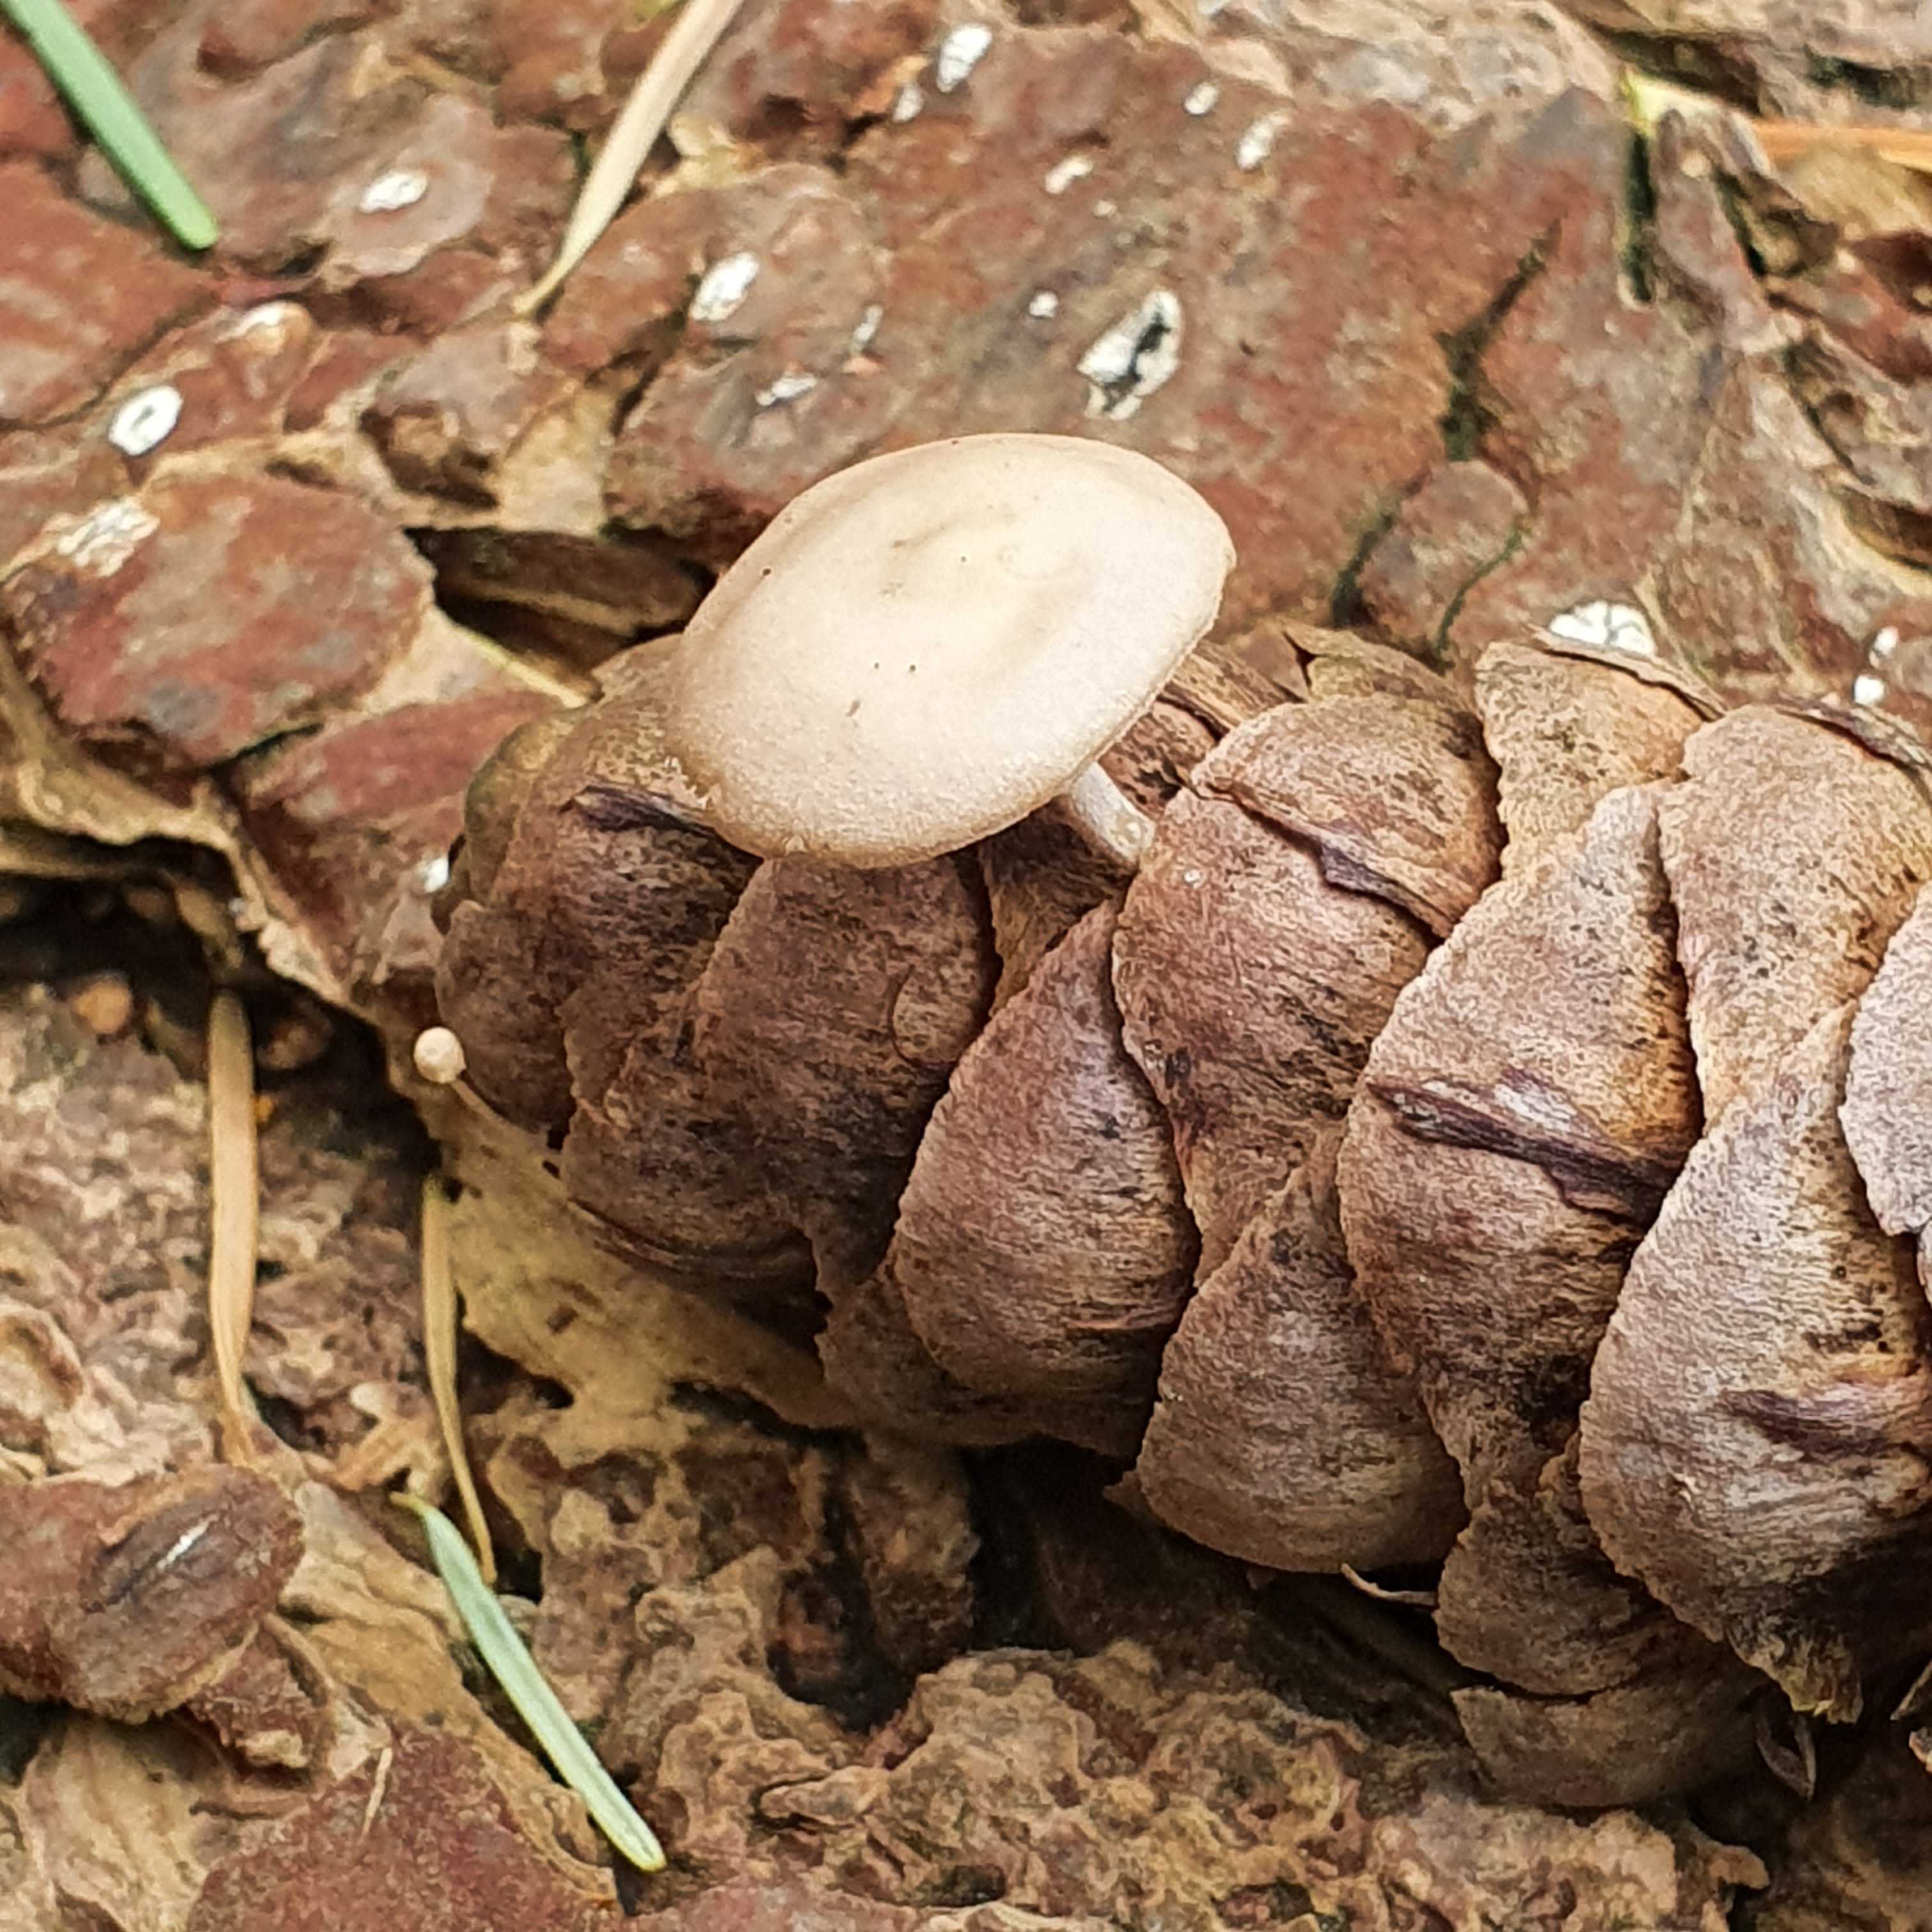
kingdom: Fungi
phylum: Basidiomycota
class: Agaricomycetes
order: Agaricales
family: Marasmiaceae
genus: Baeospora
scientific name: Baeospora myosura
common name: koglebruskhat
